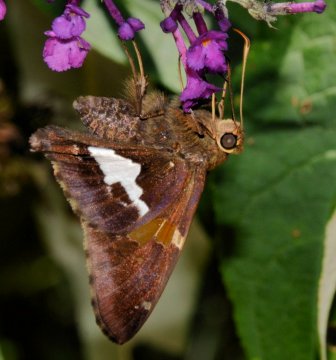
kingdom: Animalia
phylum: Arthropoda
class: Insecta
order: Lepidoptera
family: Hesperiidae
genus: Epargyreus
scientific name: Epargyreus clarus
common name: Silver-spotted Skipper
